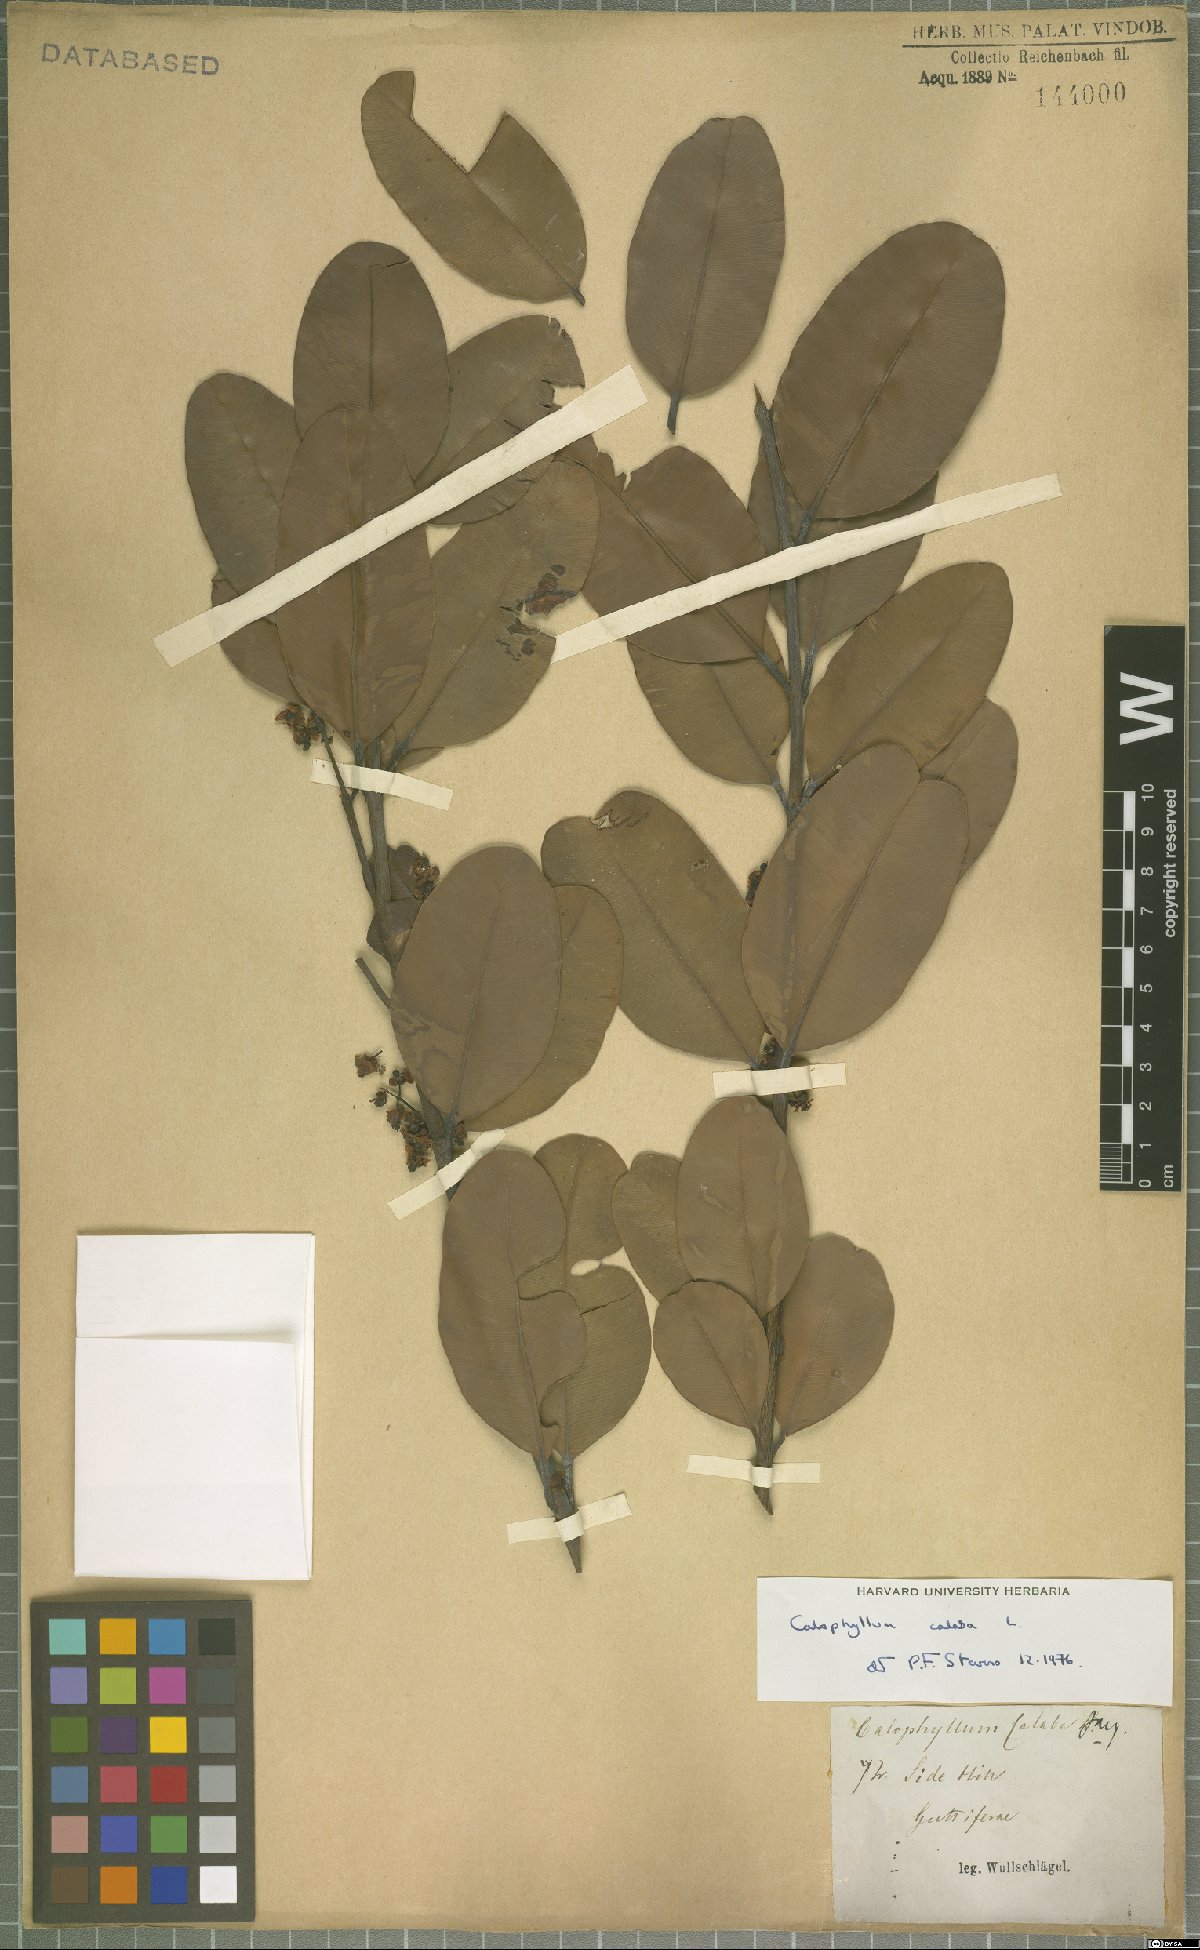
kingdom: Plantae
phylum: Tracheophyta
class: Magnoliopsida
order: Malpighiales
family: Calophyllaceae
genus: Calophyllum
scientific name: Calophyllum calaba
